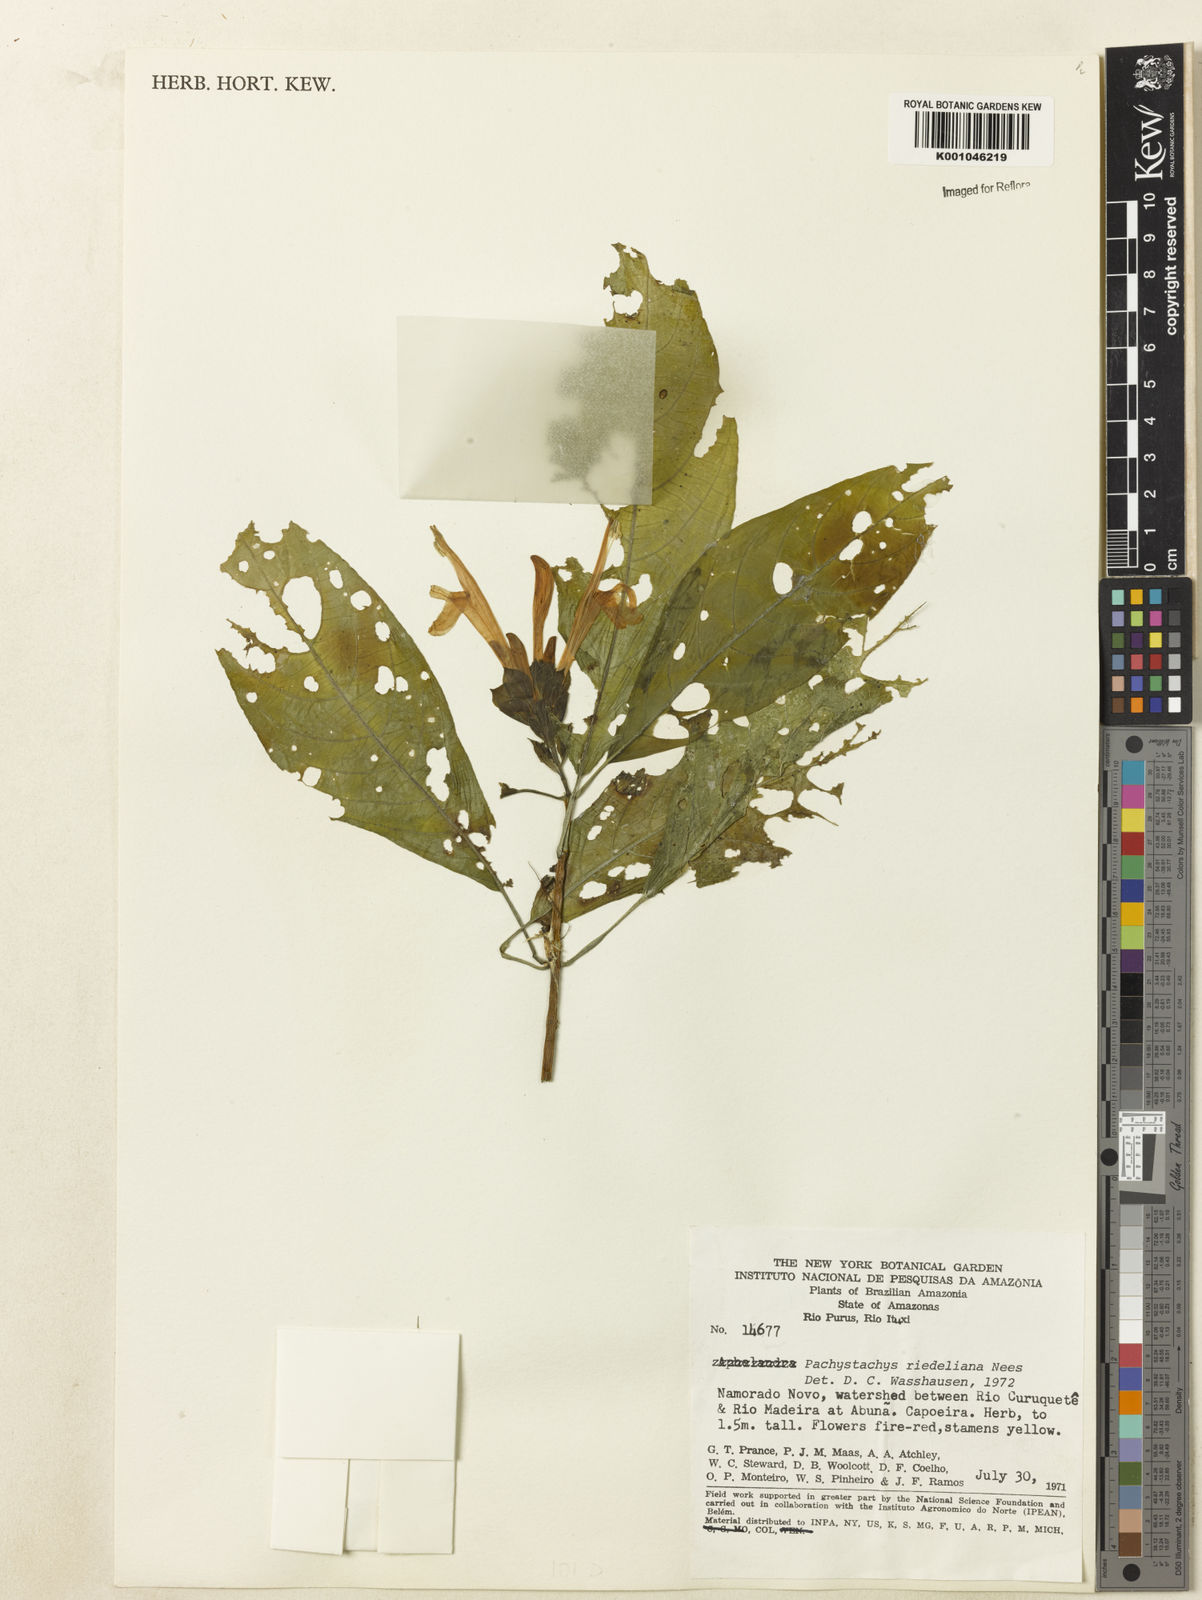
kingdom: Plantae
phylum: Tracheophyta
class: Magnoliopsida
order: Lamiales
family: Acanthaceae
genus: Pachystachys
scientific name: Pachystachys spicata
